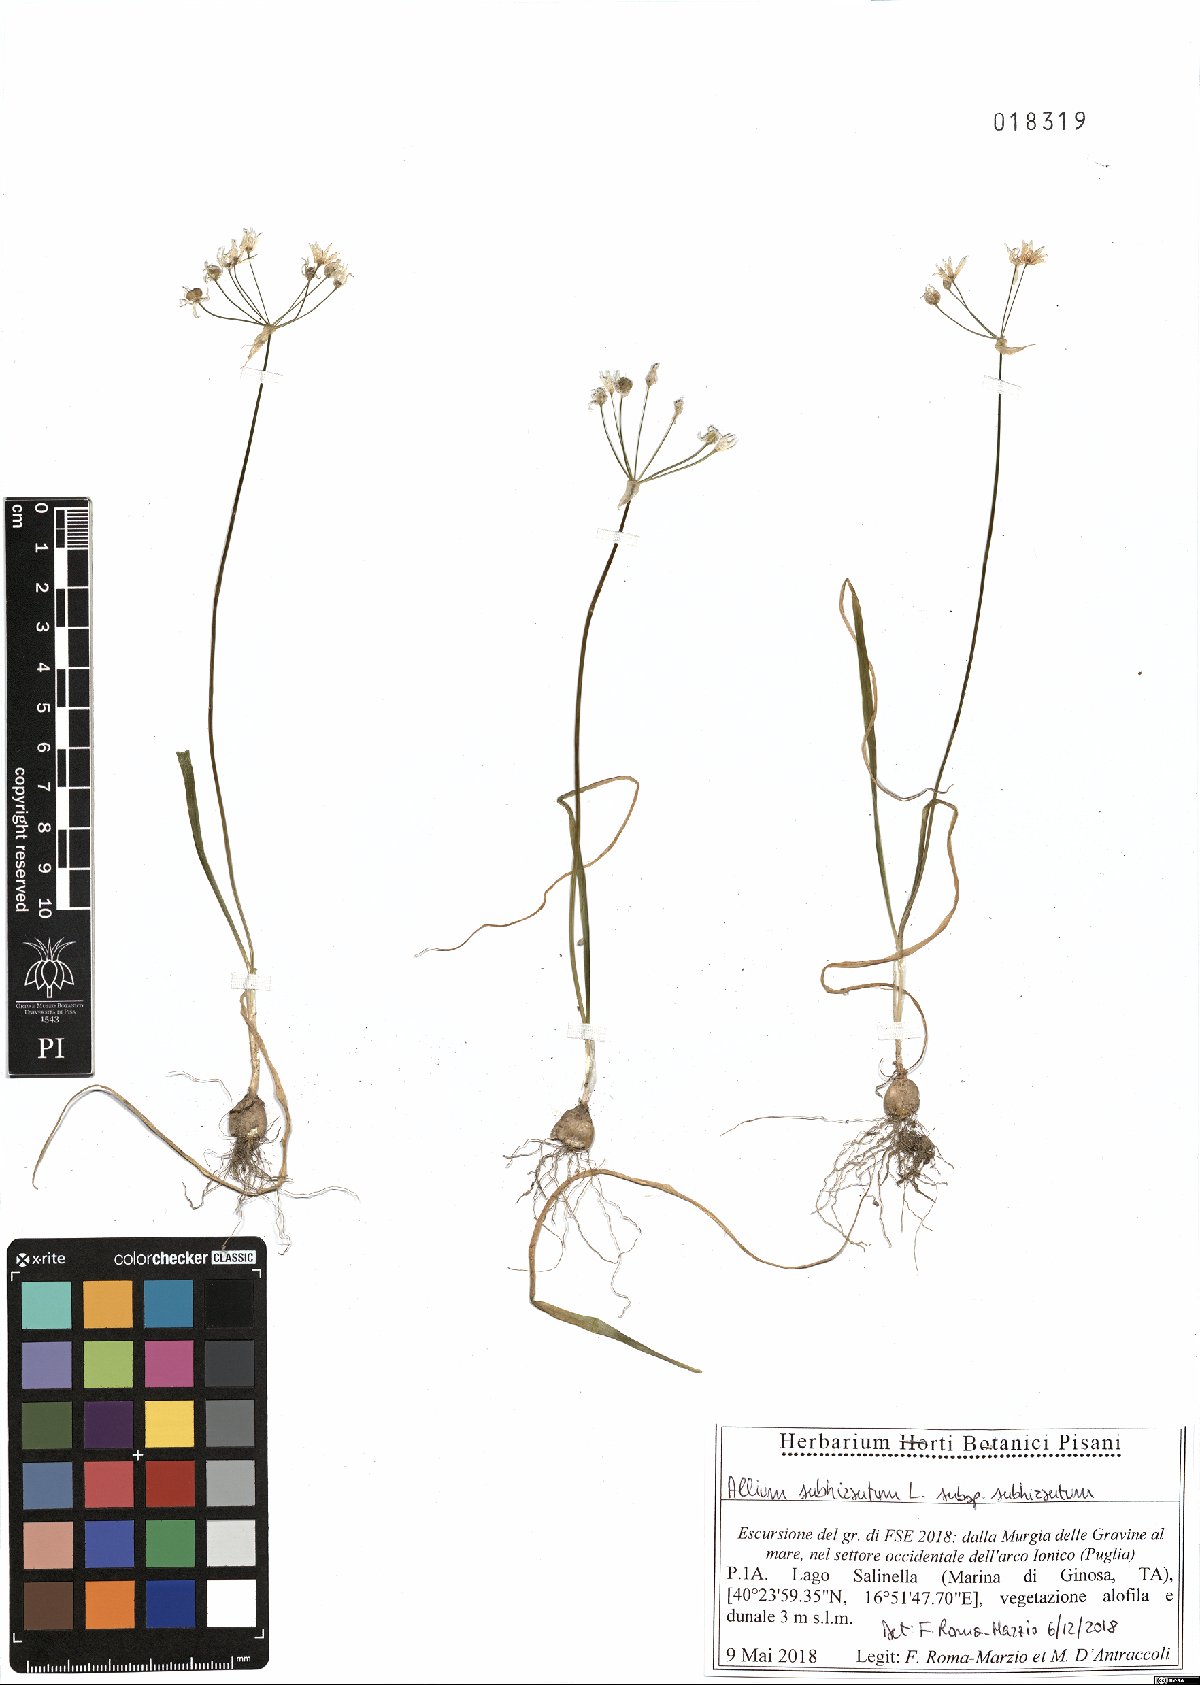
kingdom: Plantae
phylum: Tracheophyta
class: Liliopsida
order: Asparagales
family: Amaryllidaceae
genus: Allium
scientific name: Allium subhirsutum
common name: Hairy garlic
